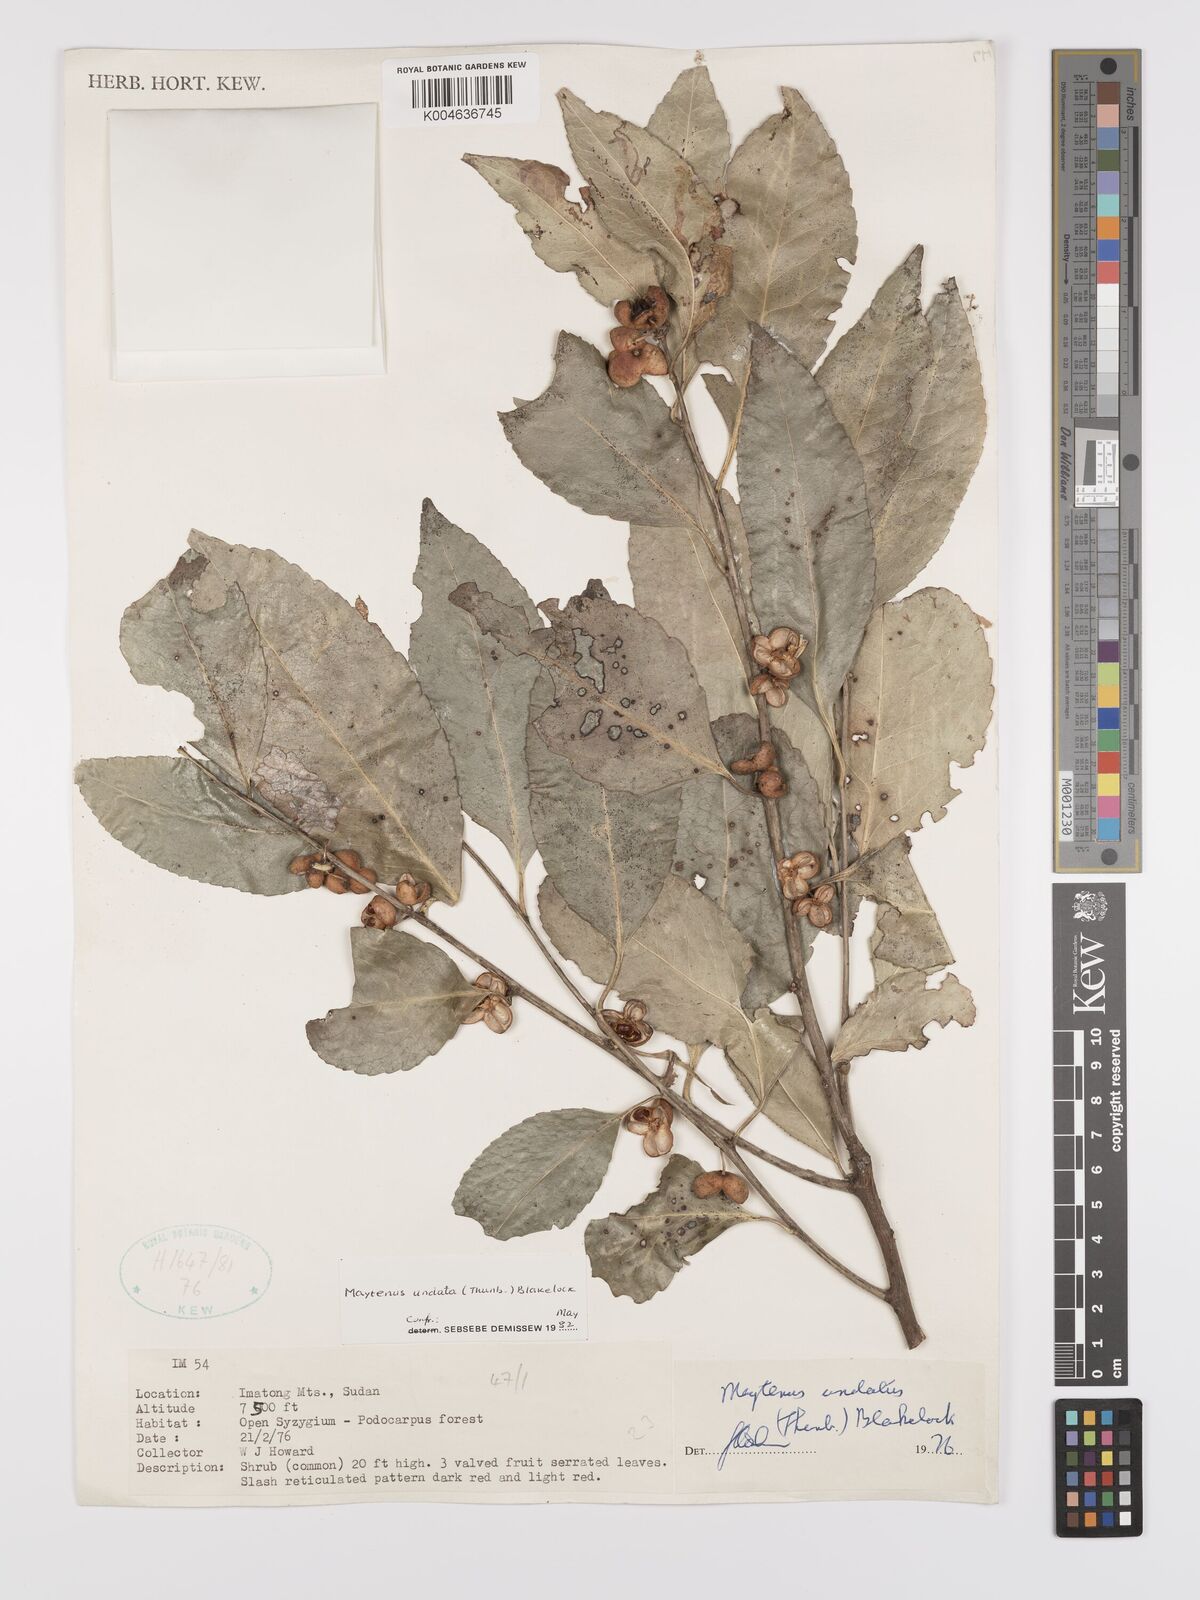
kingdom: Plantae
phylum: Tracheophyta
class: Magnoliopsida
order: Celastrales
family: Celastraceae
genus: Gymnosporia
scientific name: Gymnosporia undata
